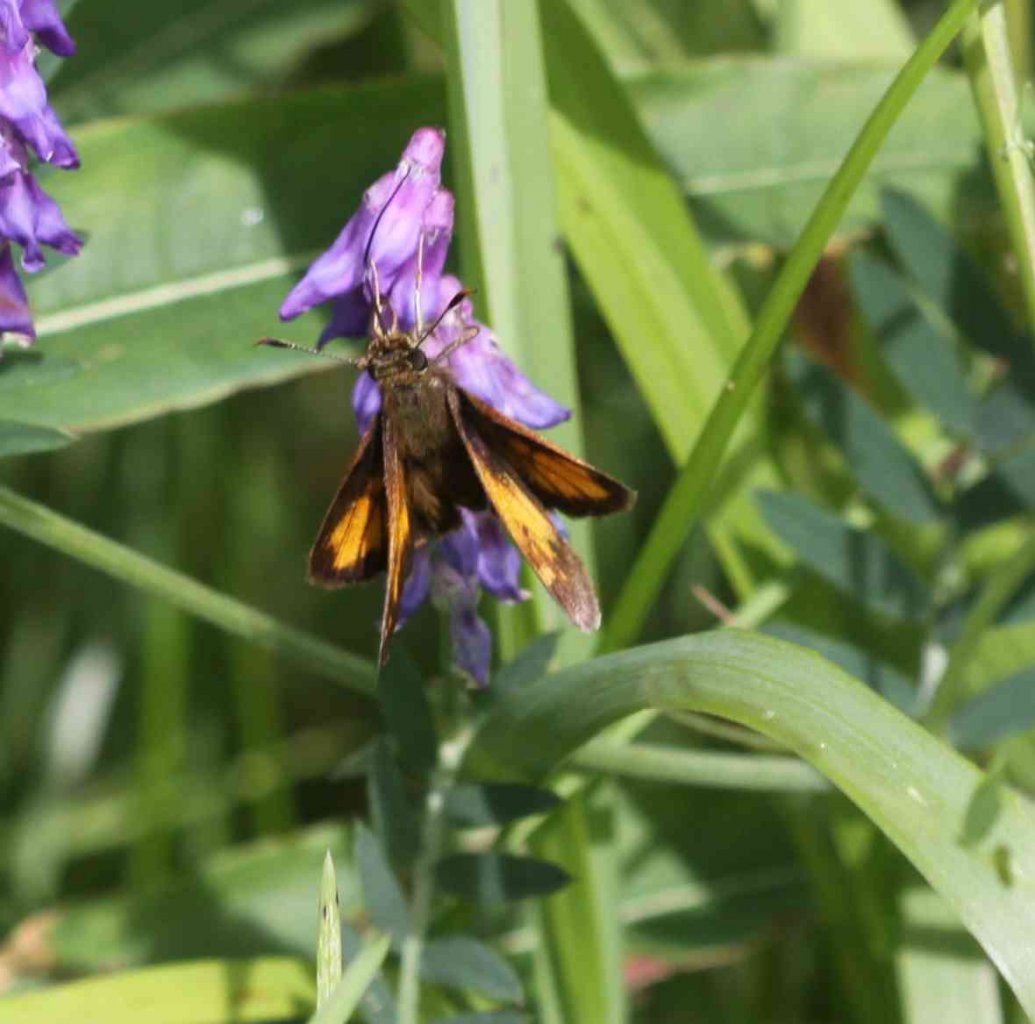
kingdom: Animalia
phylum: Arthropoda
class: Insecta
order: Lepidoptera
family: Hesperiidae
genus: Lon
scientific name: Lon hobomok
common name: Hobomok Skipper
